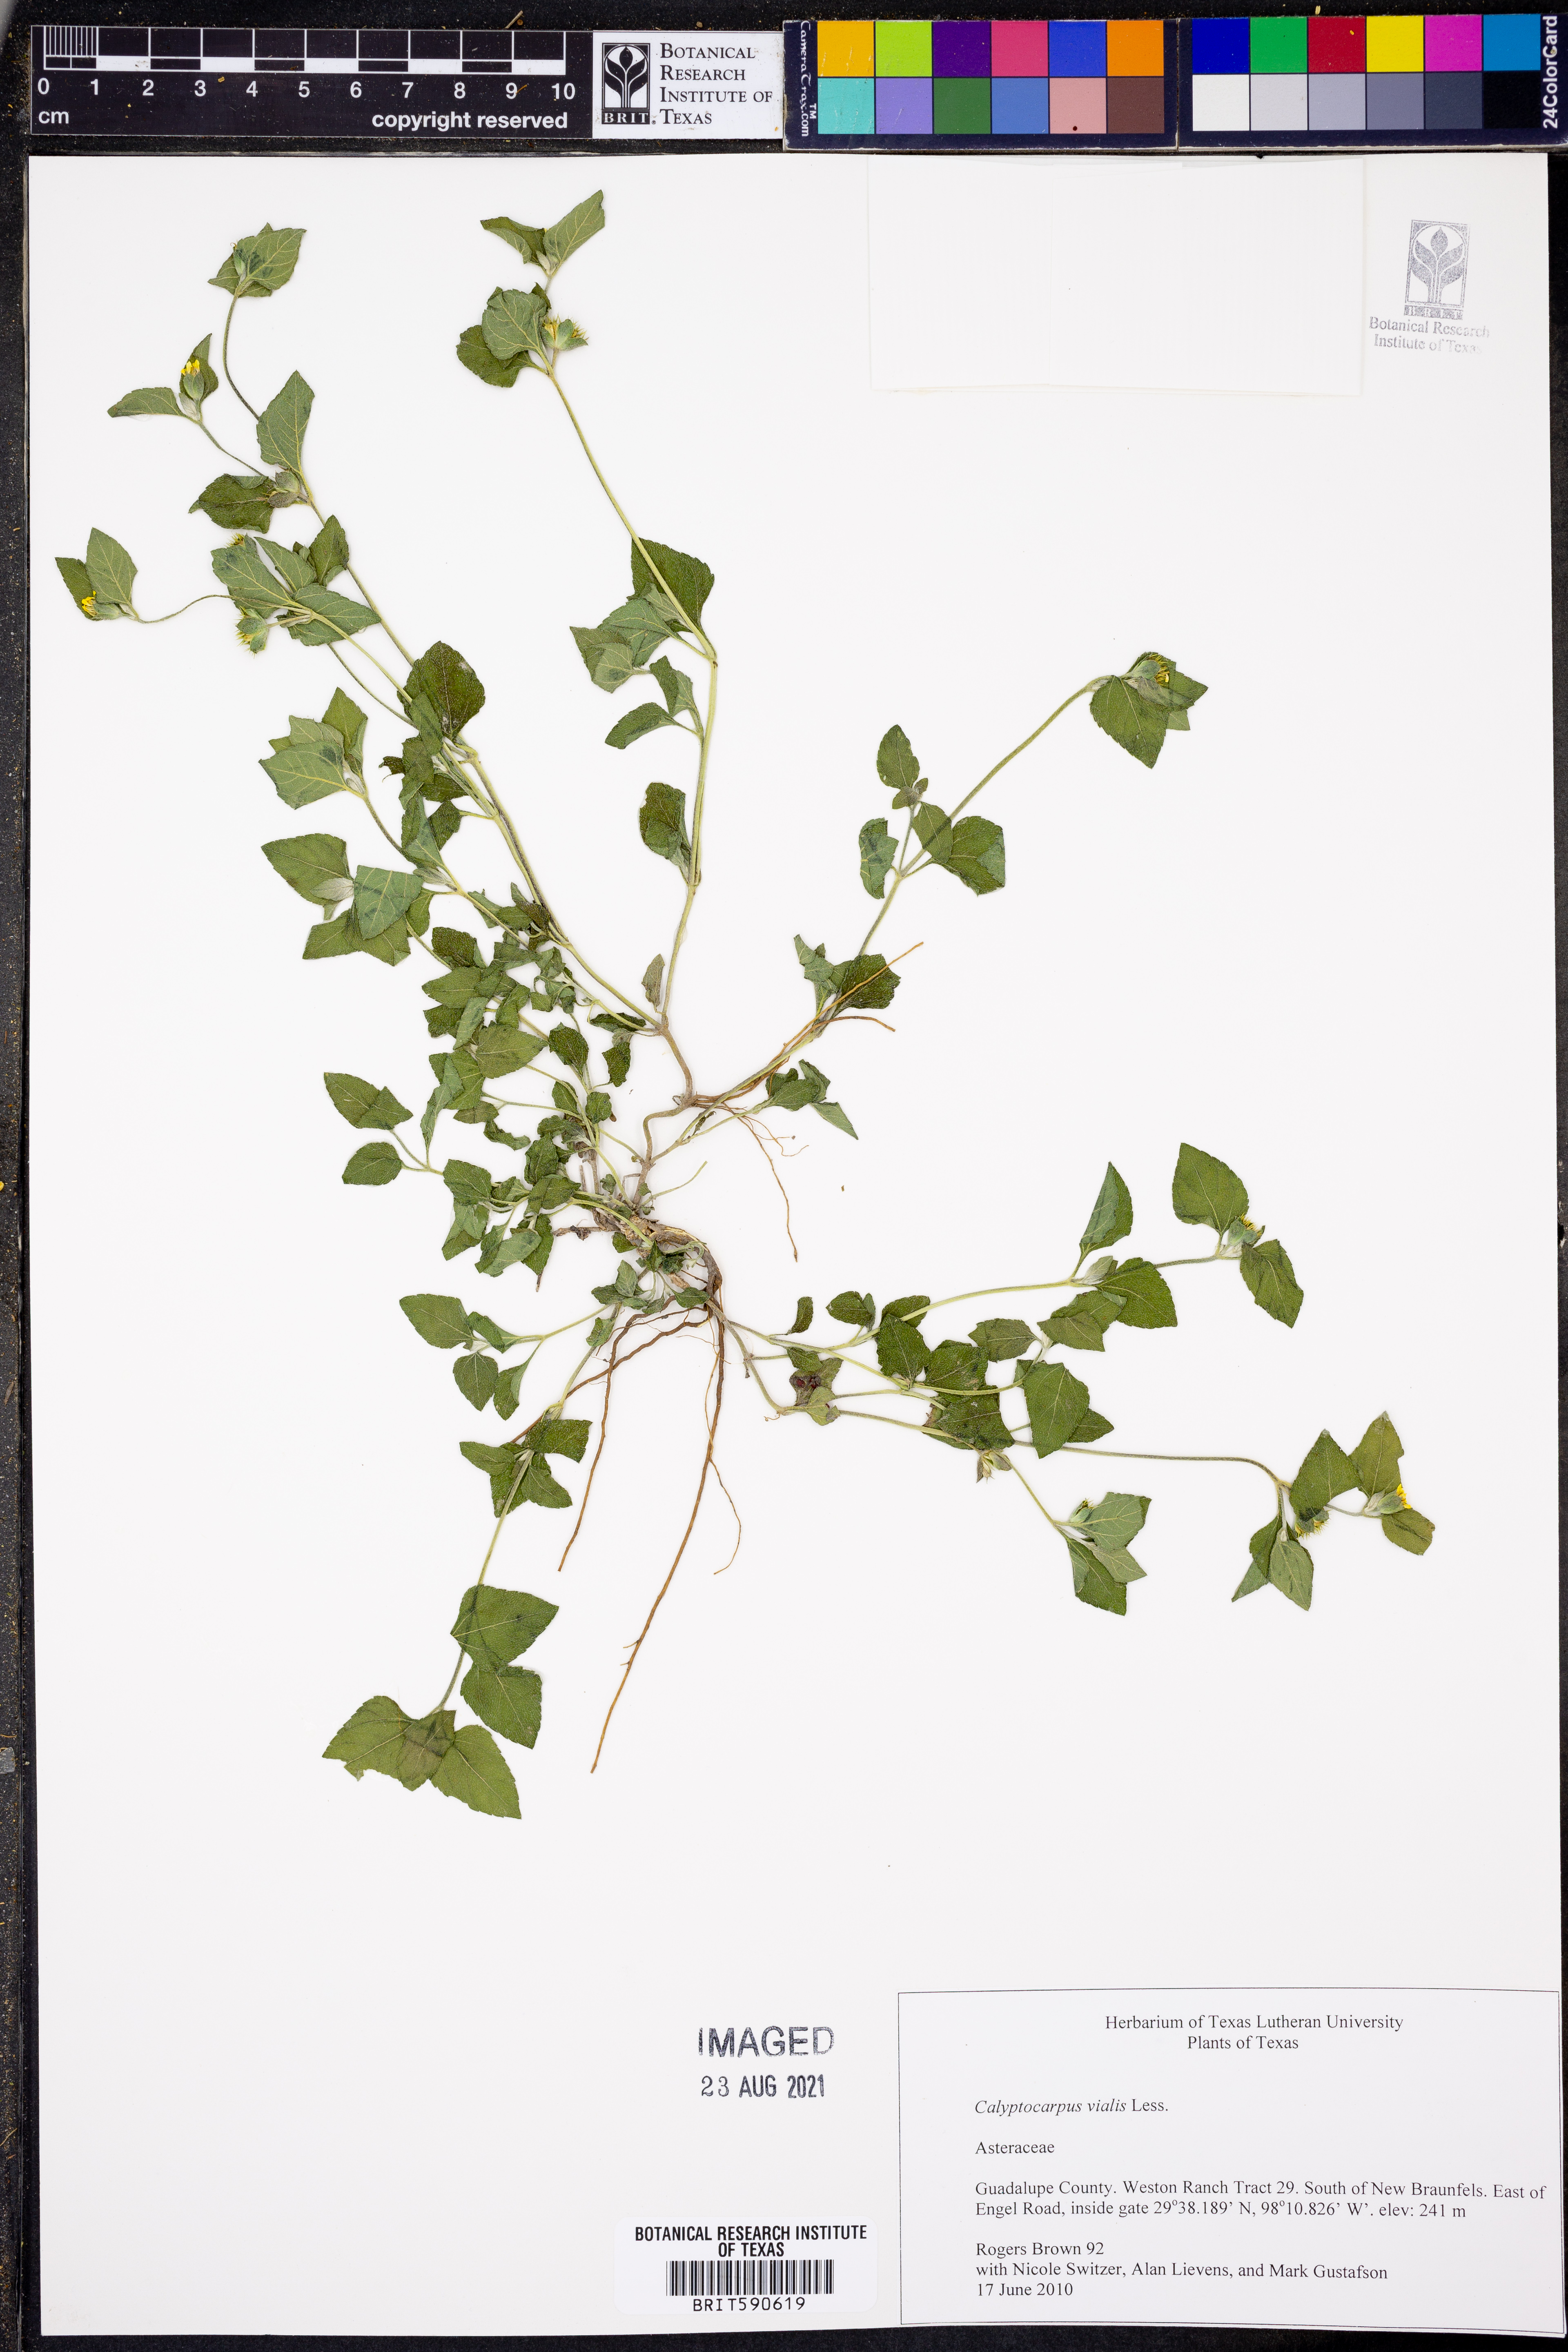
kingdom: Plantae
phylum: Tracheophyta
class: Magnoliopsida
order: Asterales
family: Asteraceae
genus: Calyptocarpus
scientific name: Calyptocarpus vialis
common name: Straggler daisy
